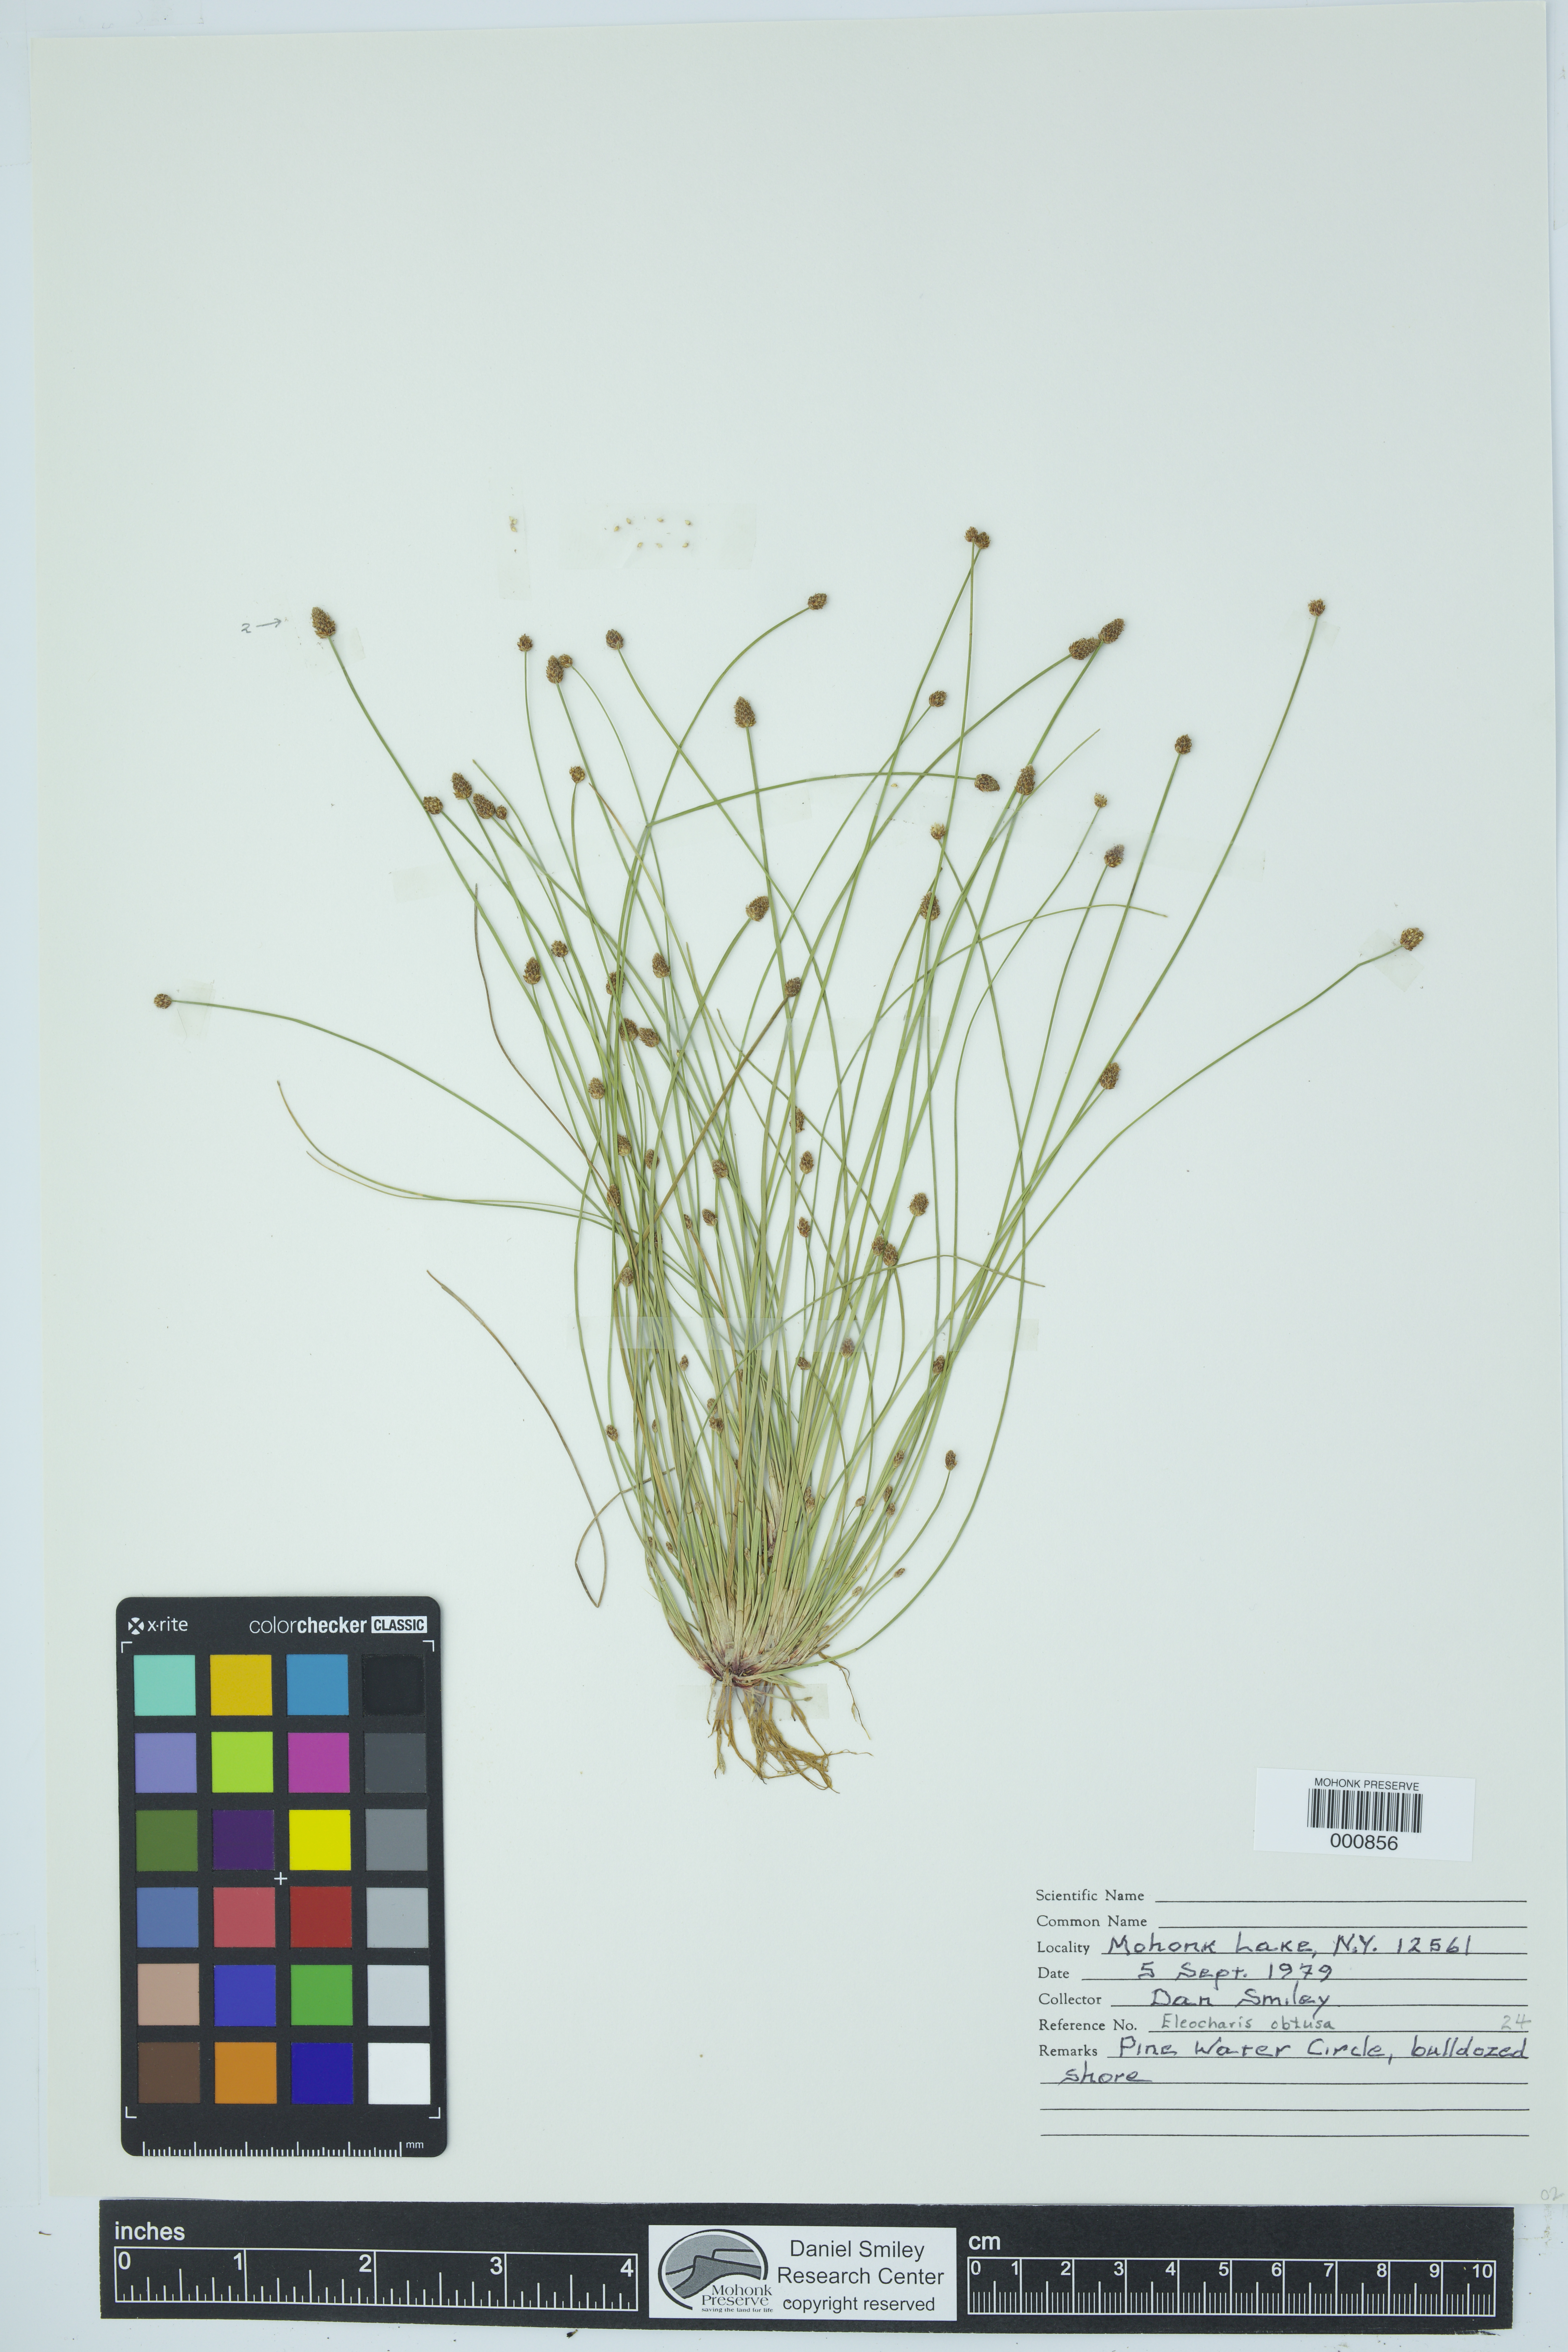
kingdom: Plantae
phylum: Tracheophyta
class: Liliopsida
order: Poales
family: Cyperaceae
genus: Eleocharis
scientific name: Eleocharis obtusa
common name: Blunt spikerush
